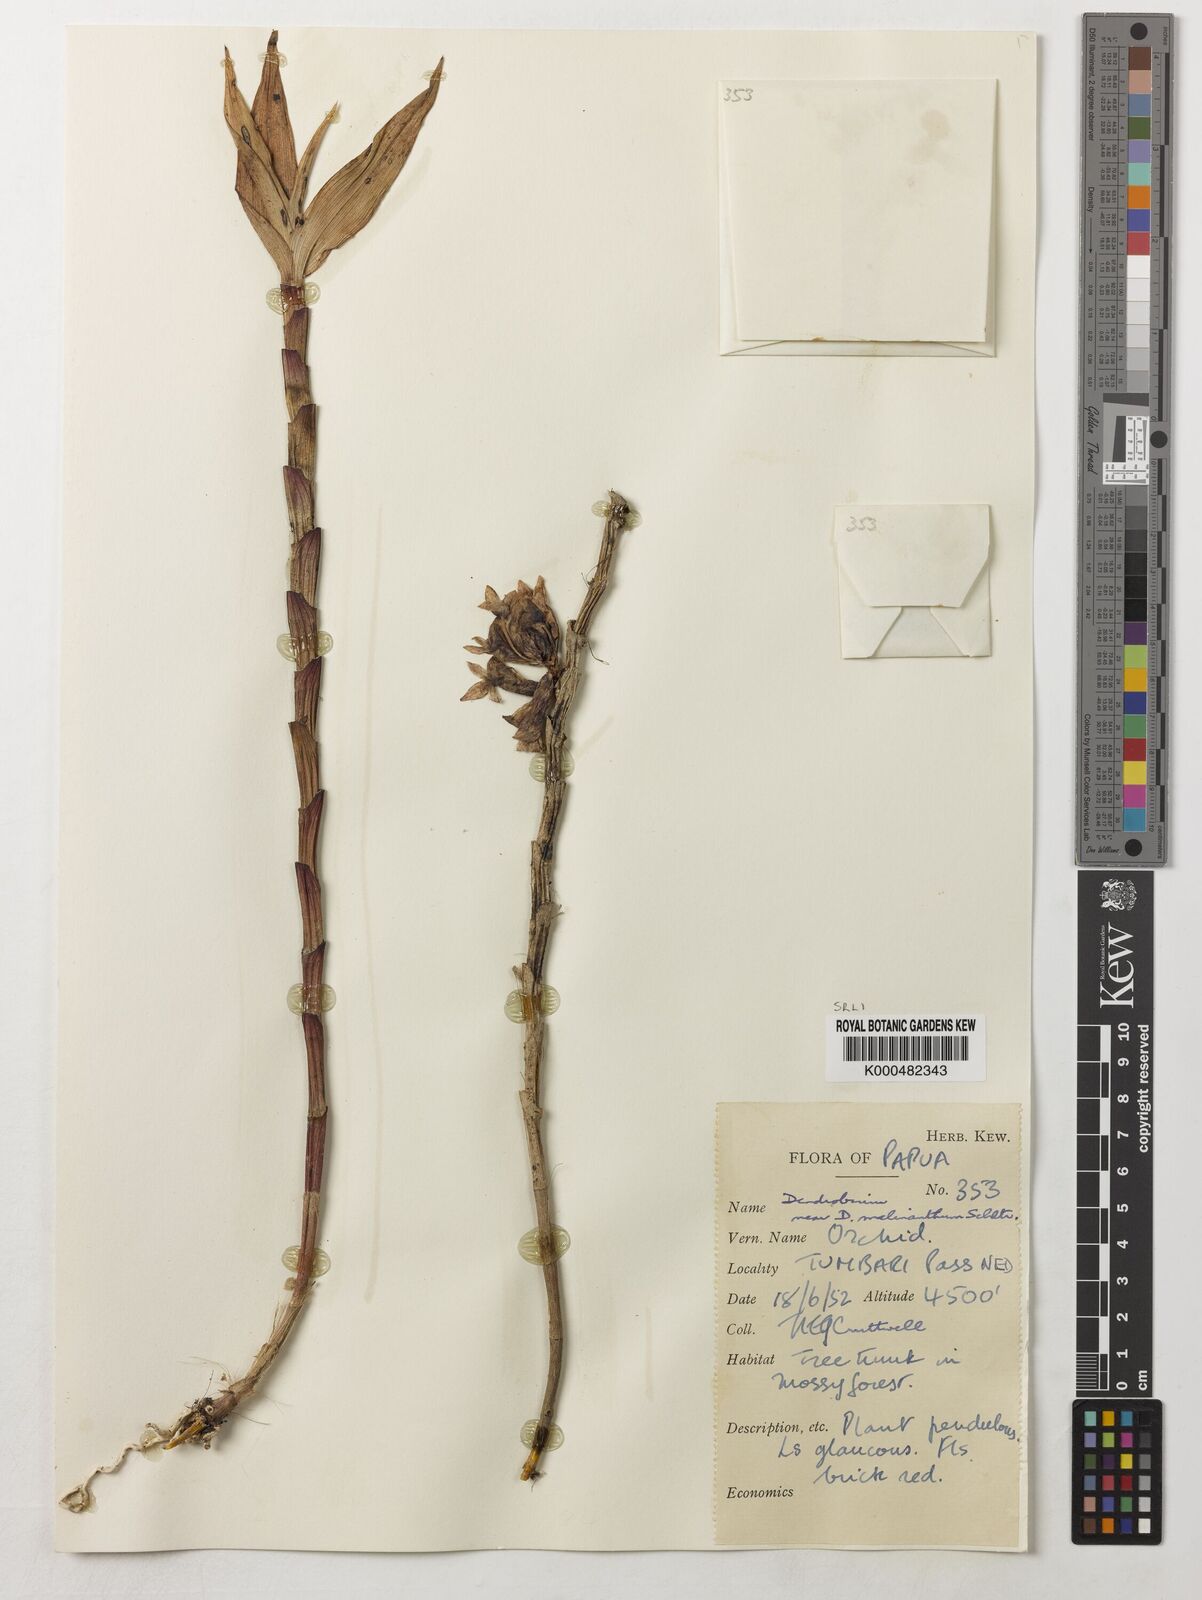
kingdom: Plantae
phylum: Tracheophyta
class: Liliopsida
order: Asparagales
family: Orchidaceae
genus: Dendrobium
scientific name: Dendrobium melinanthum
